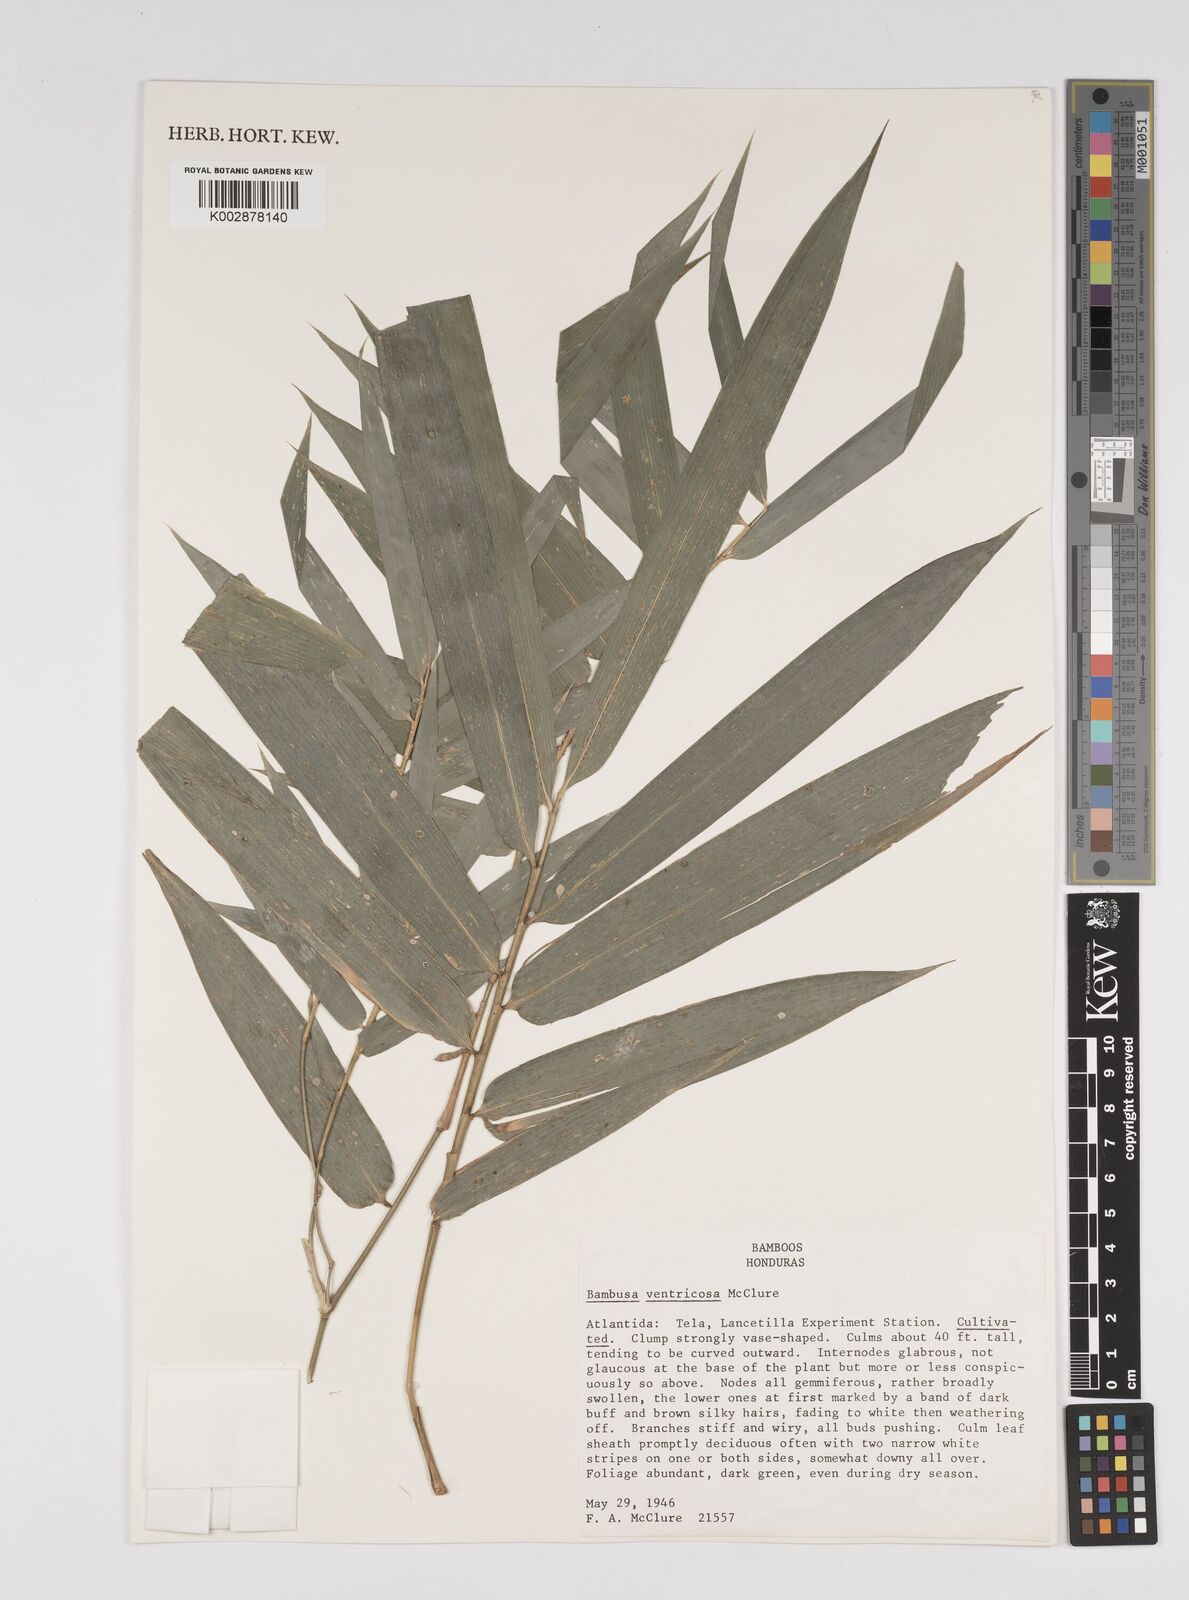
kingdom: Plantae
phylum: Tracheophyta
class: Liliopsida
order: Poales
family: Poaceae
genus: Bambusa
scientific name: Bambusa ventricosa
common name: Buddha bamboo
